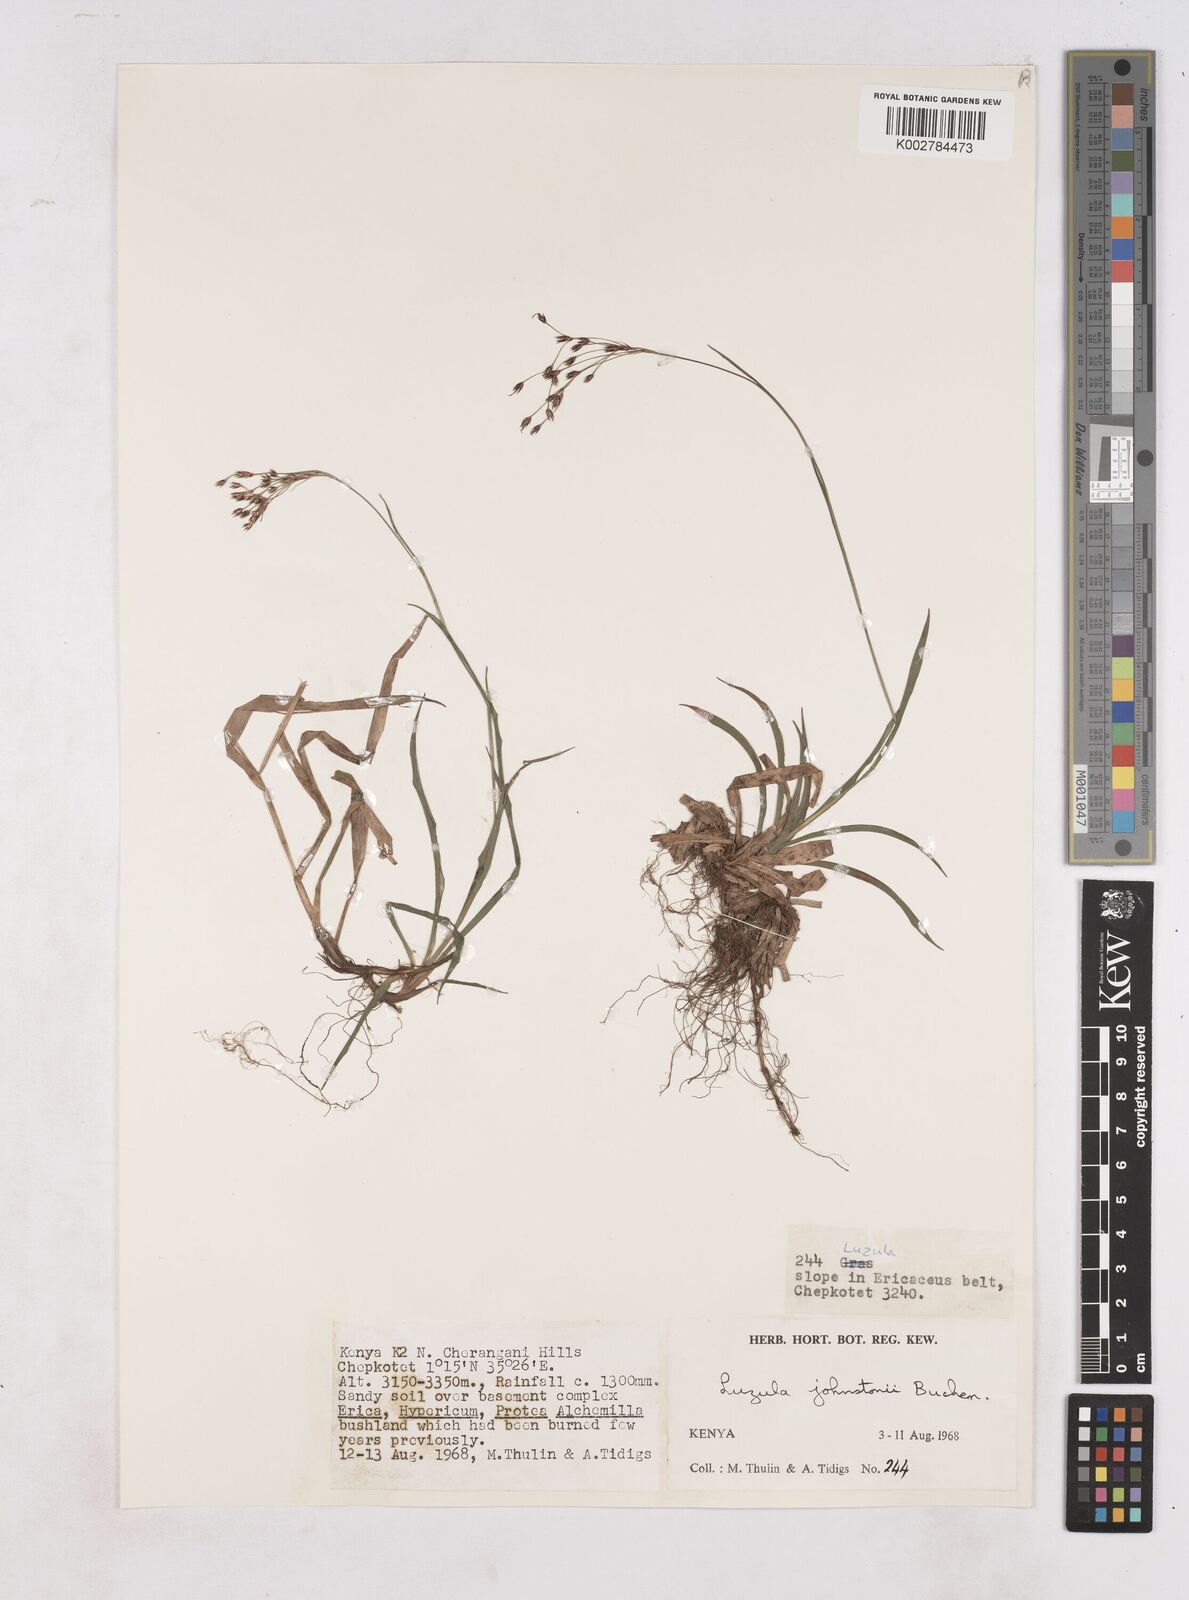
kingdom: Plantae
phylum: Tracheophyta
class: Liliopsida
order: Poales
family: Juncaceae
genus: Luzula
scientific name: Luzula johnstonii
